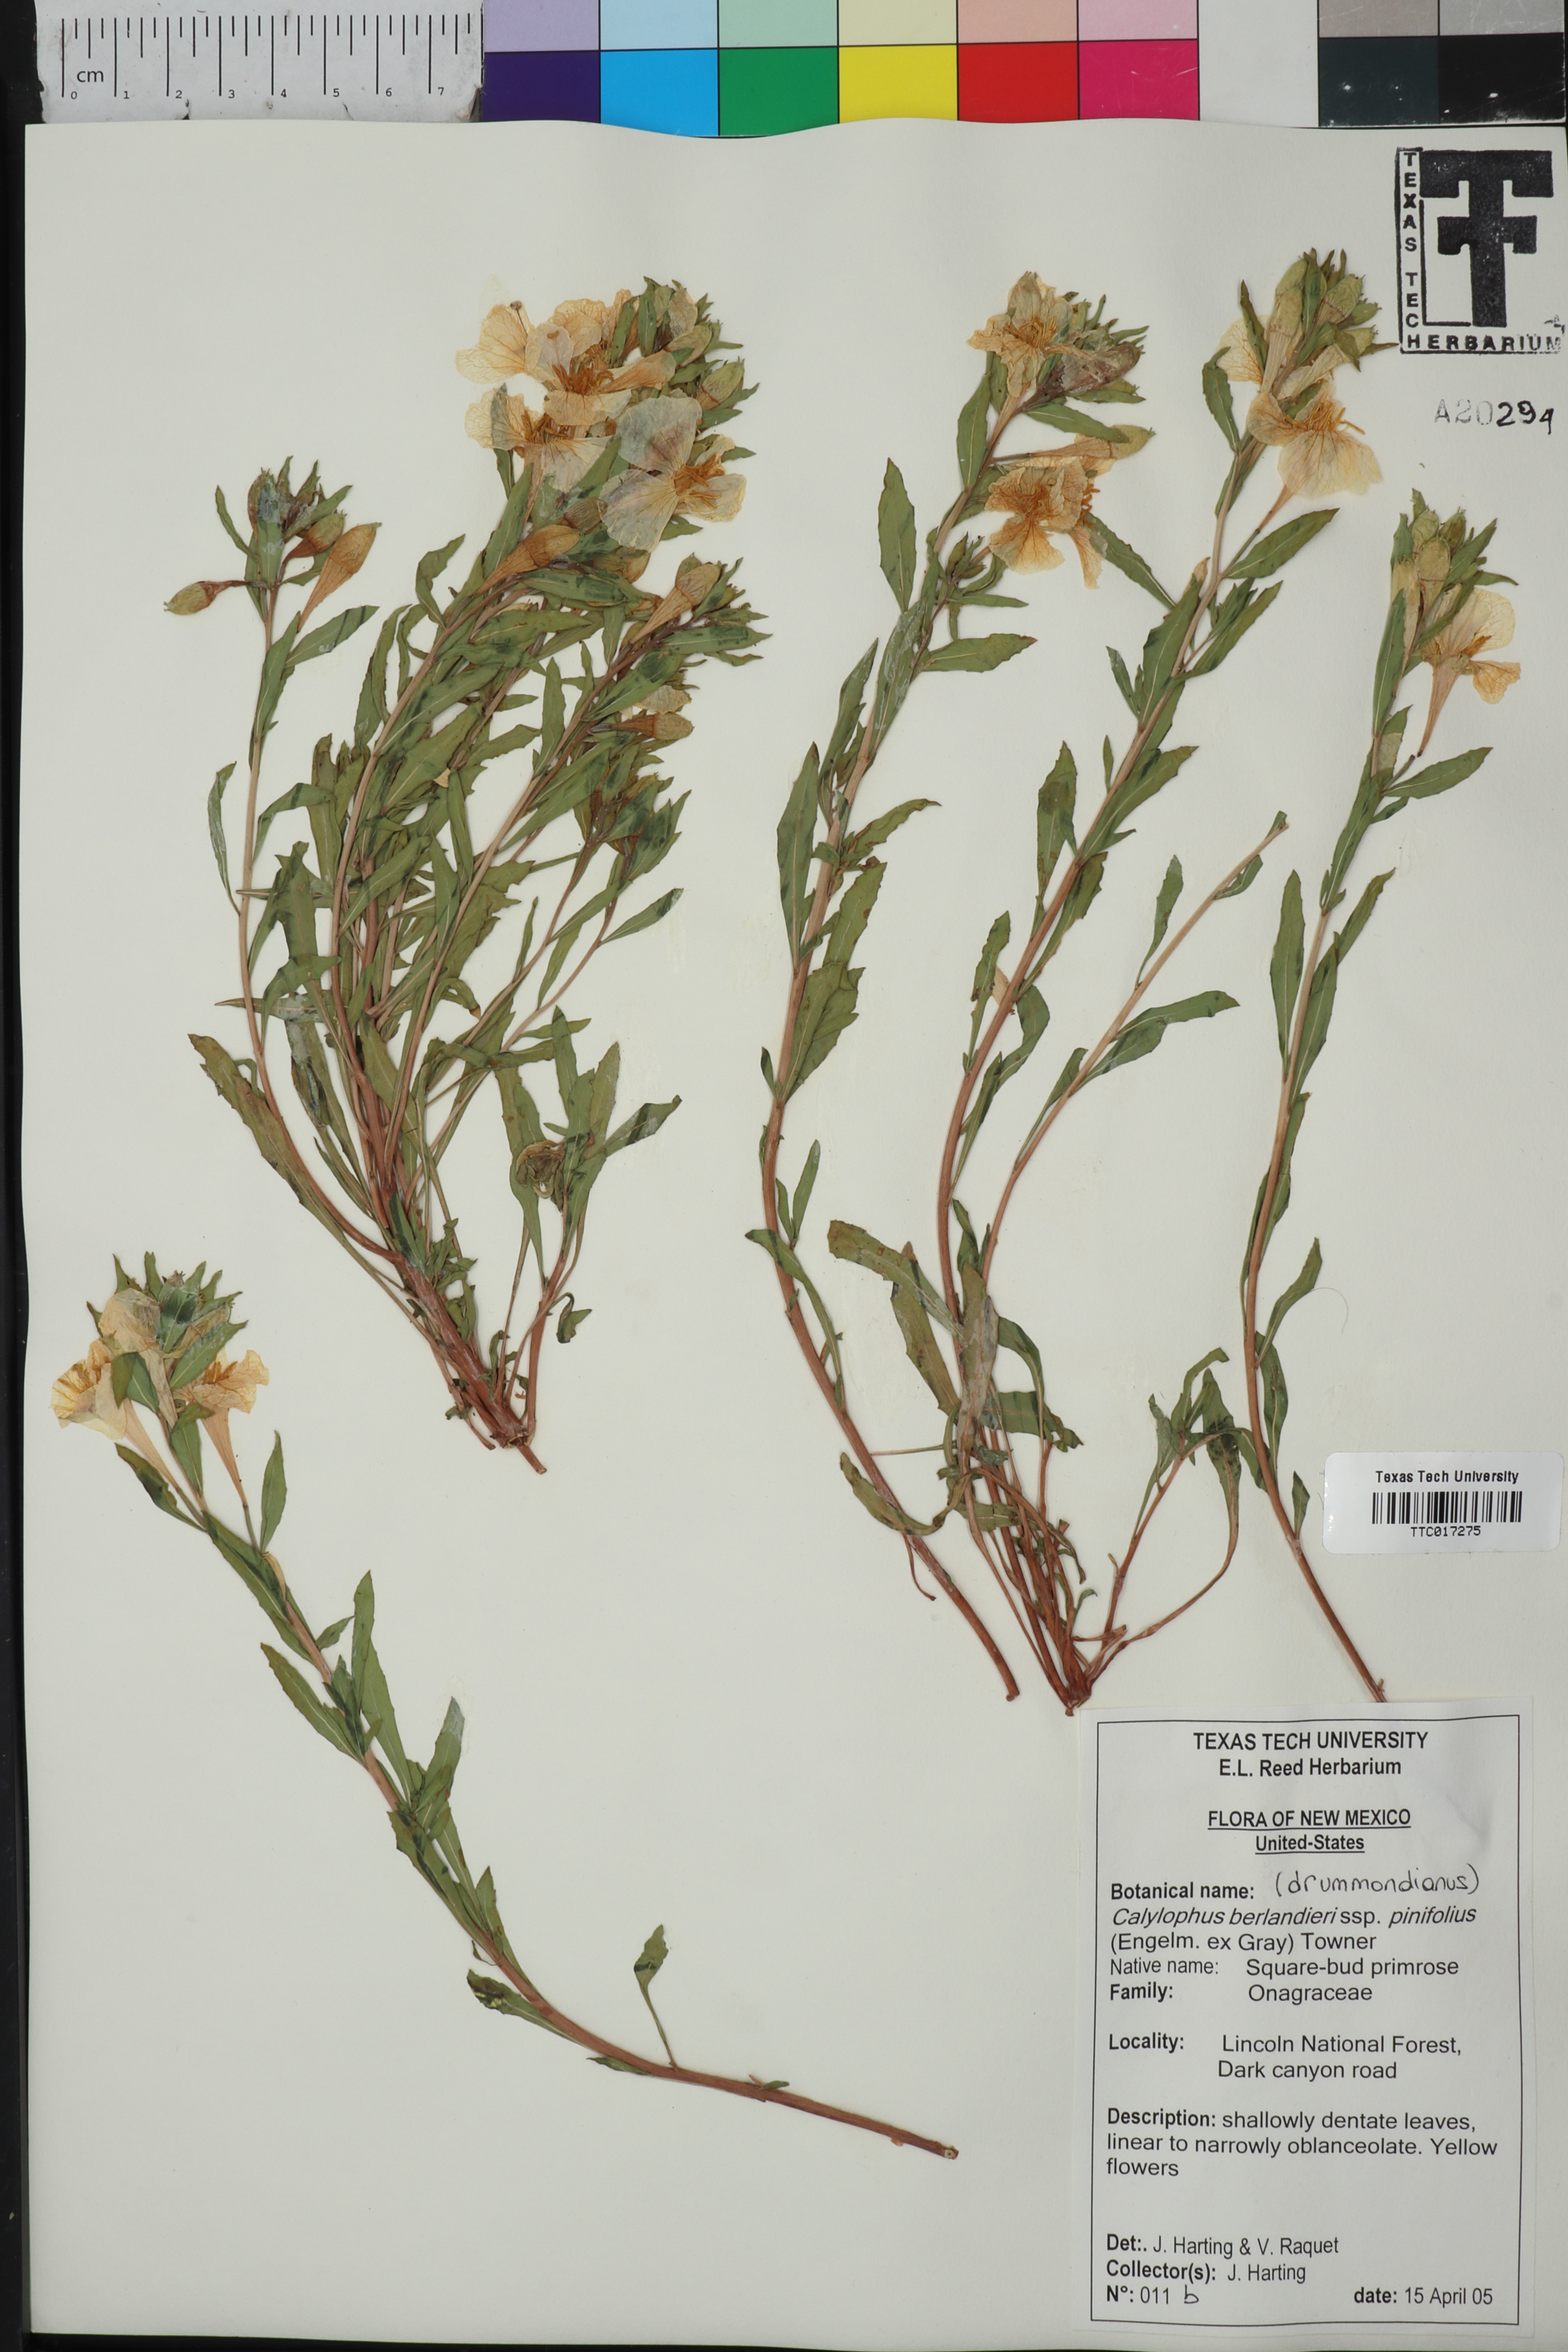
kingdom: Plantae
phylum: Tracheophyta
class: Magnoliopsida
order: Myrtales
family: Onagraceae
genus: Oenothera
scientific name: Oenothera capillifolia
